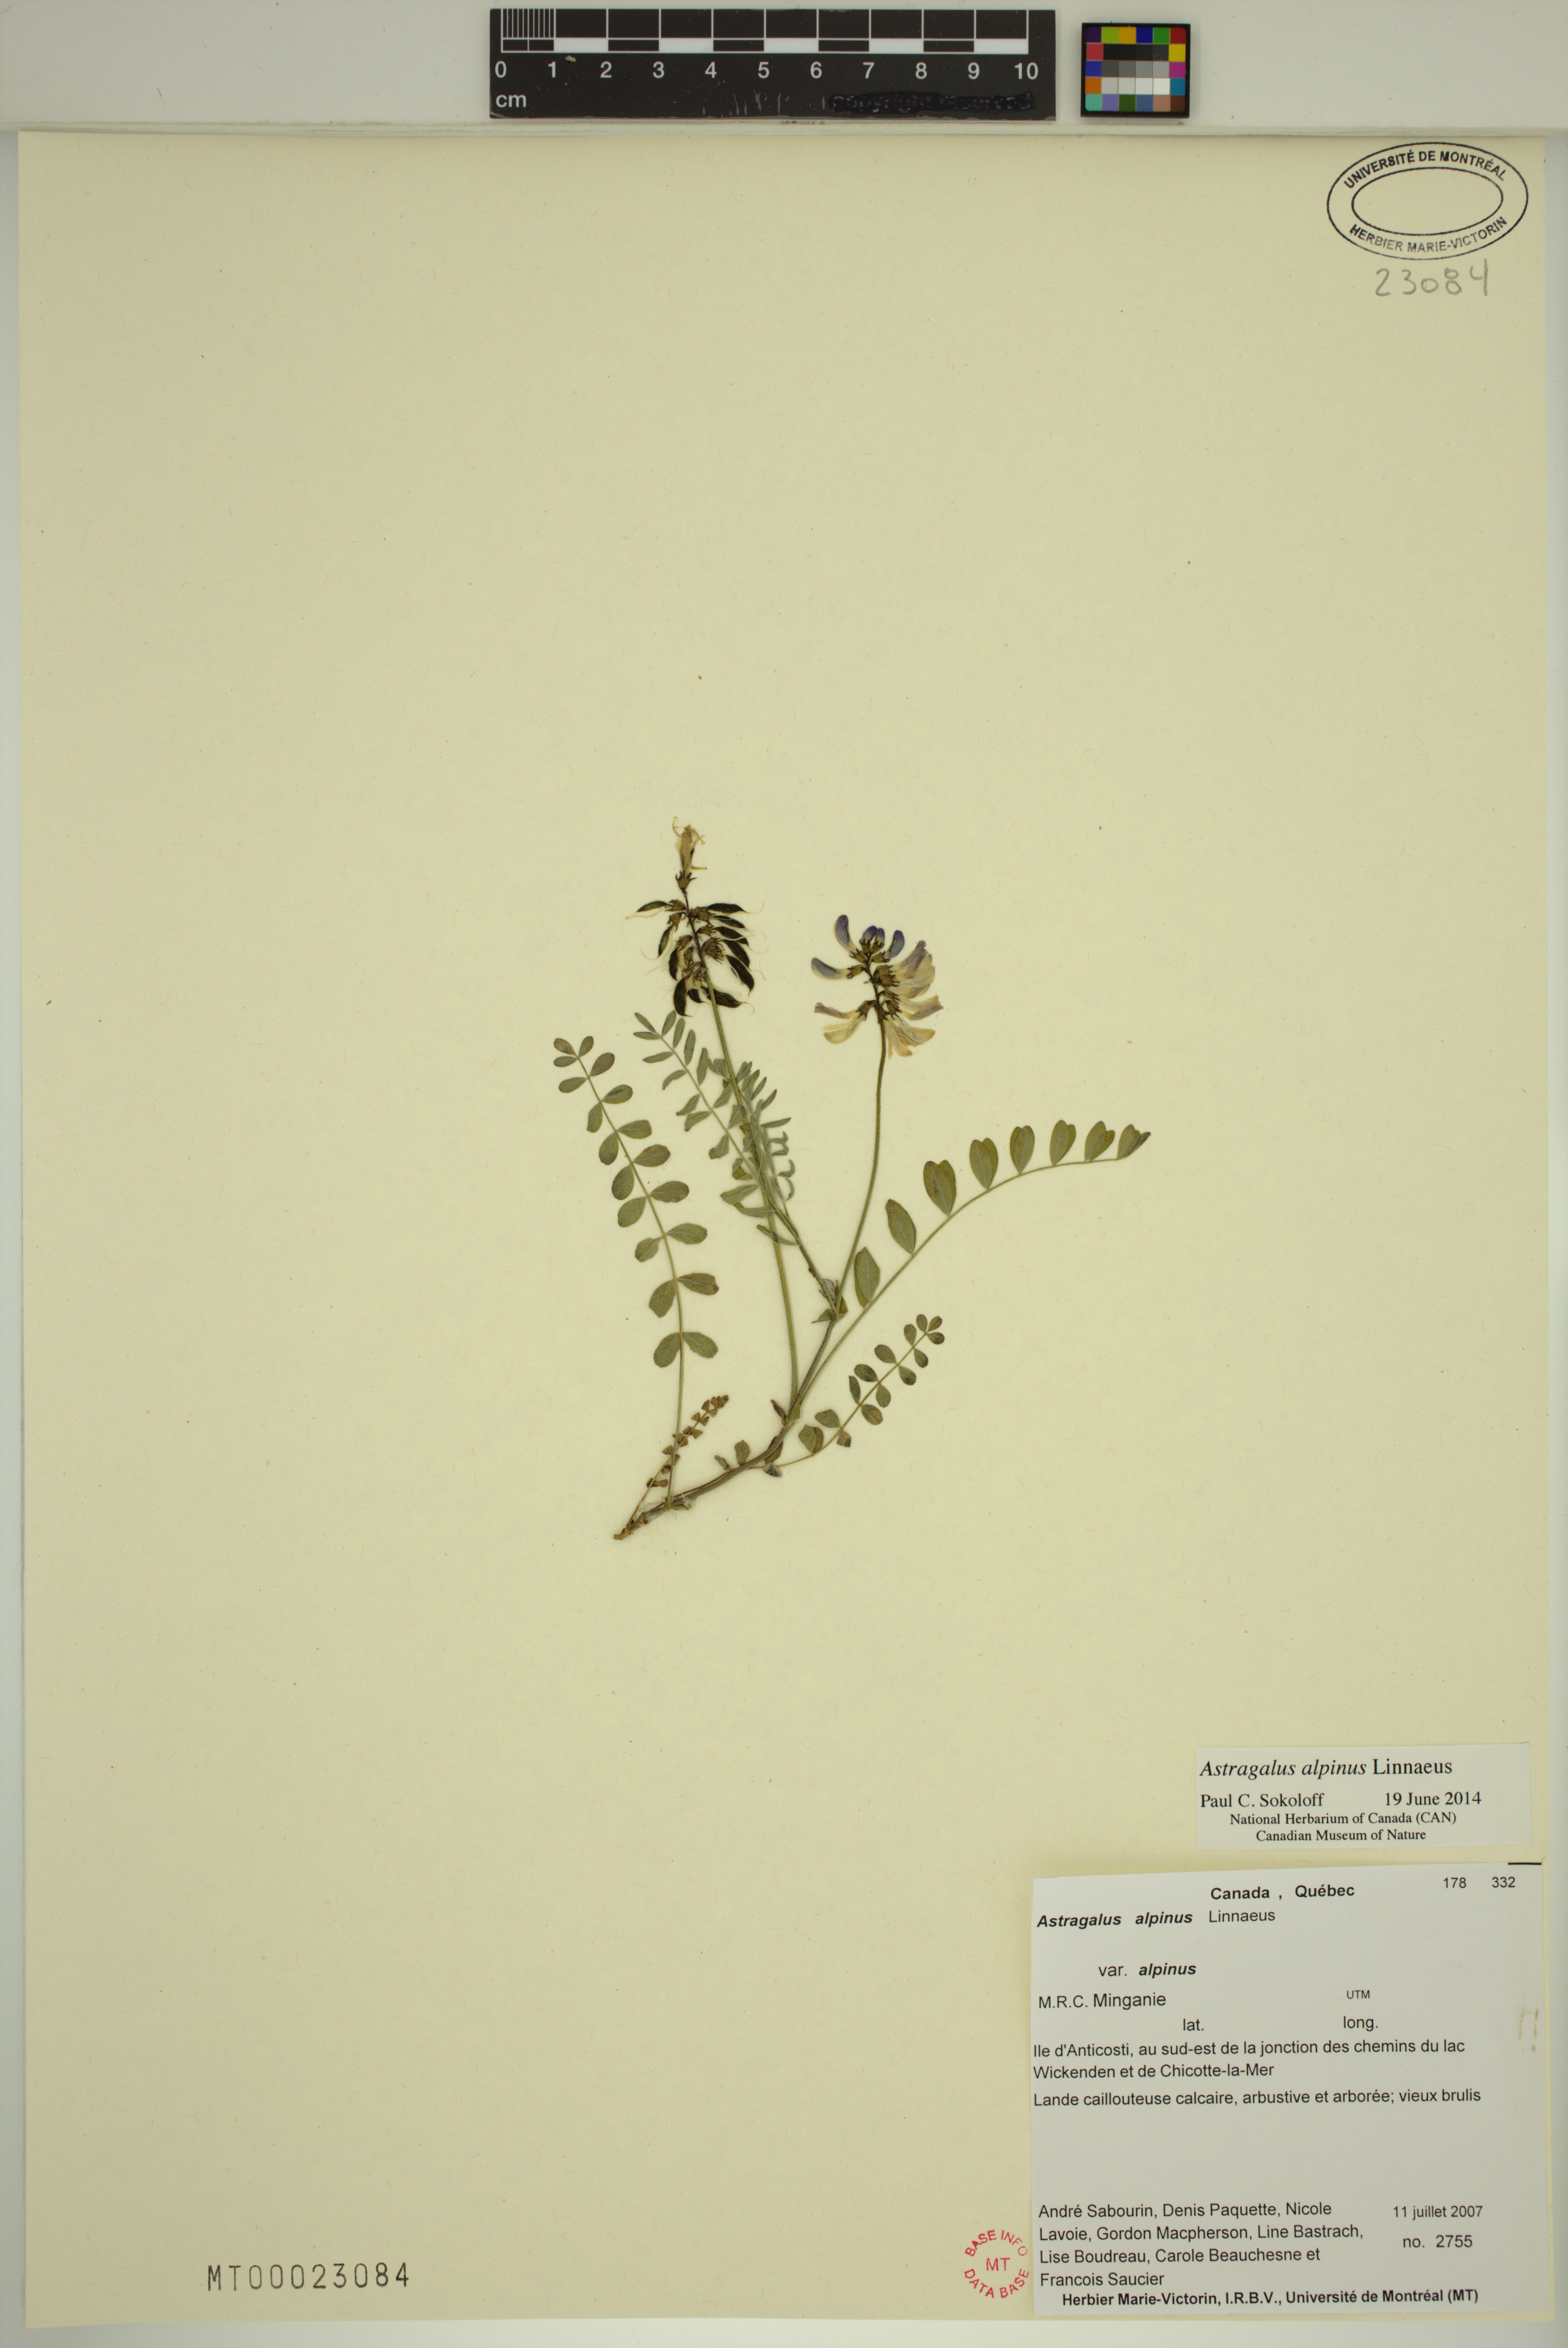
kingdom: Plantae
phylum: Tracheophyta
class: Magnoliopsida
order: Fabales
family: Fabaceae
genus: Astragalus
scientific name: Astragalus alpinus
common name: Alpine milk-vetch
